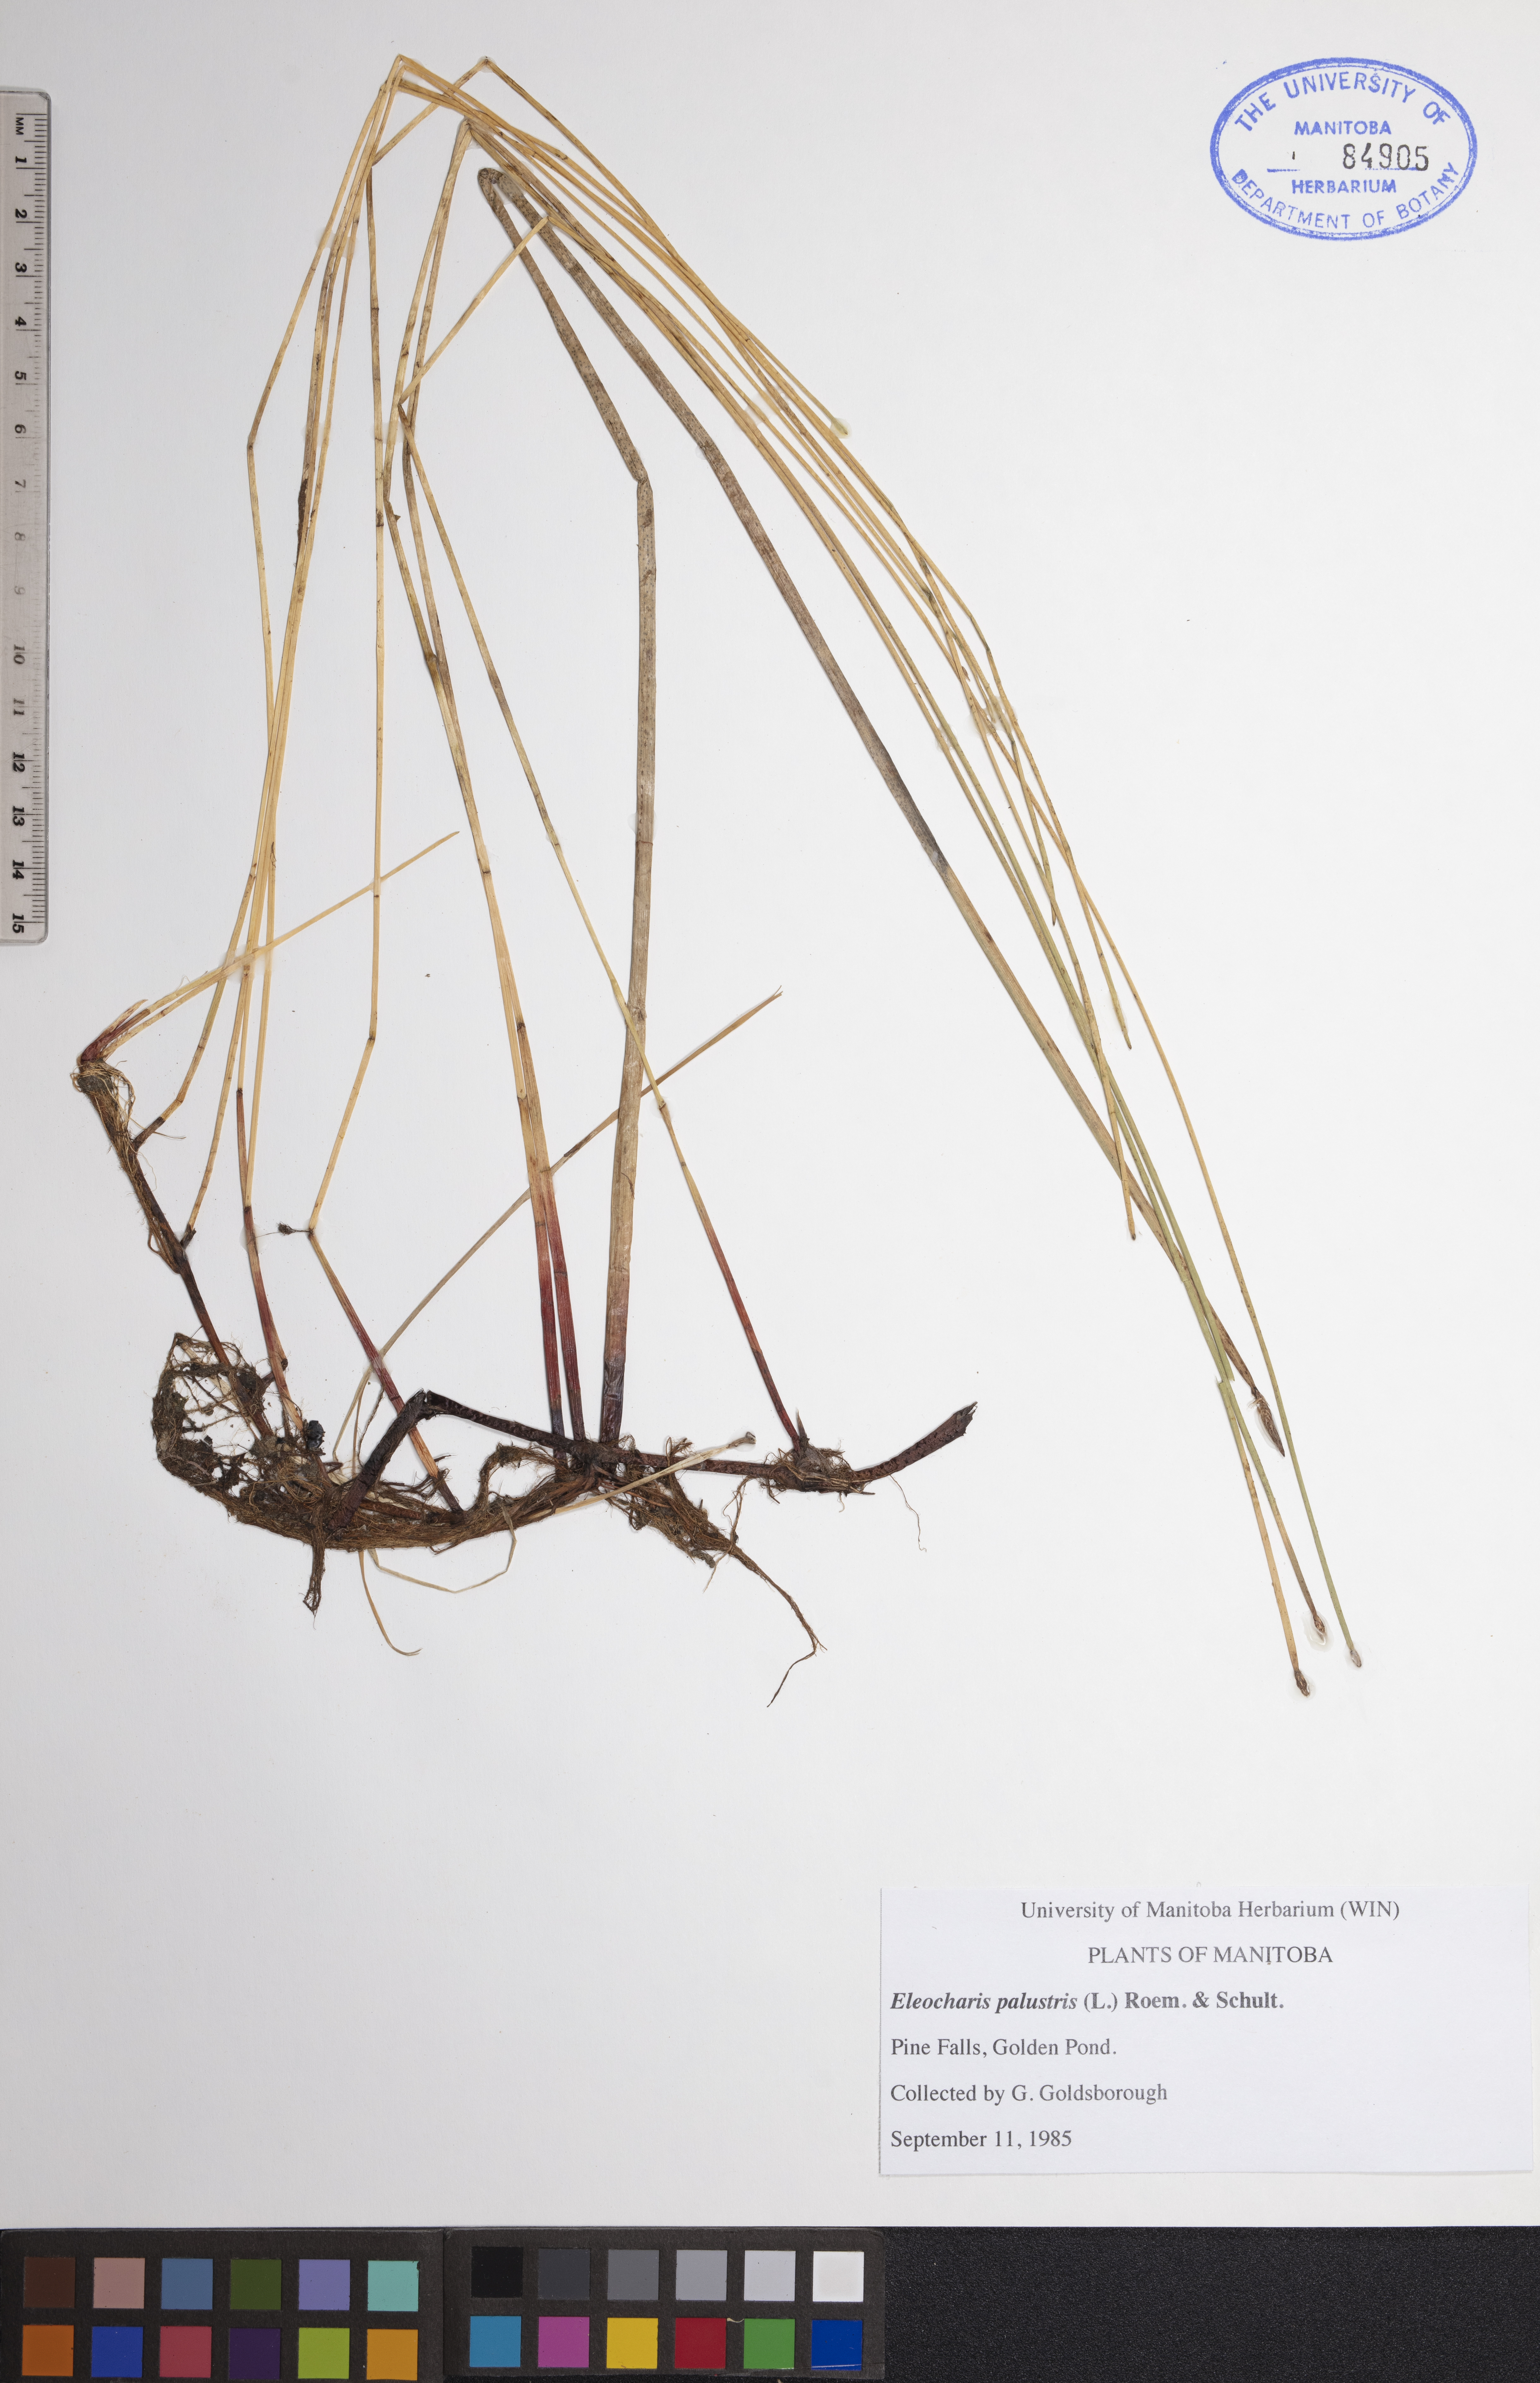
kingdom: Plantae
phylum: Tracheophyta
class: Liliopsida
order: Poales
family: Cyperaceae
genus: Eleocharis
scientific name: Eleocharis palustris
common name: Common spike-rush
